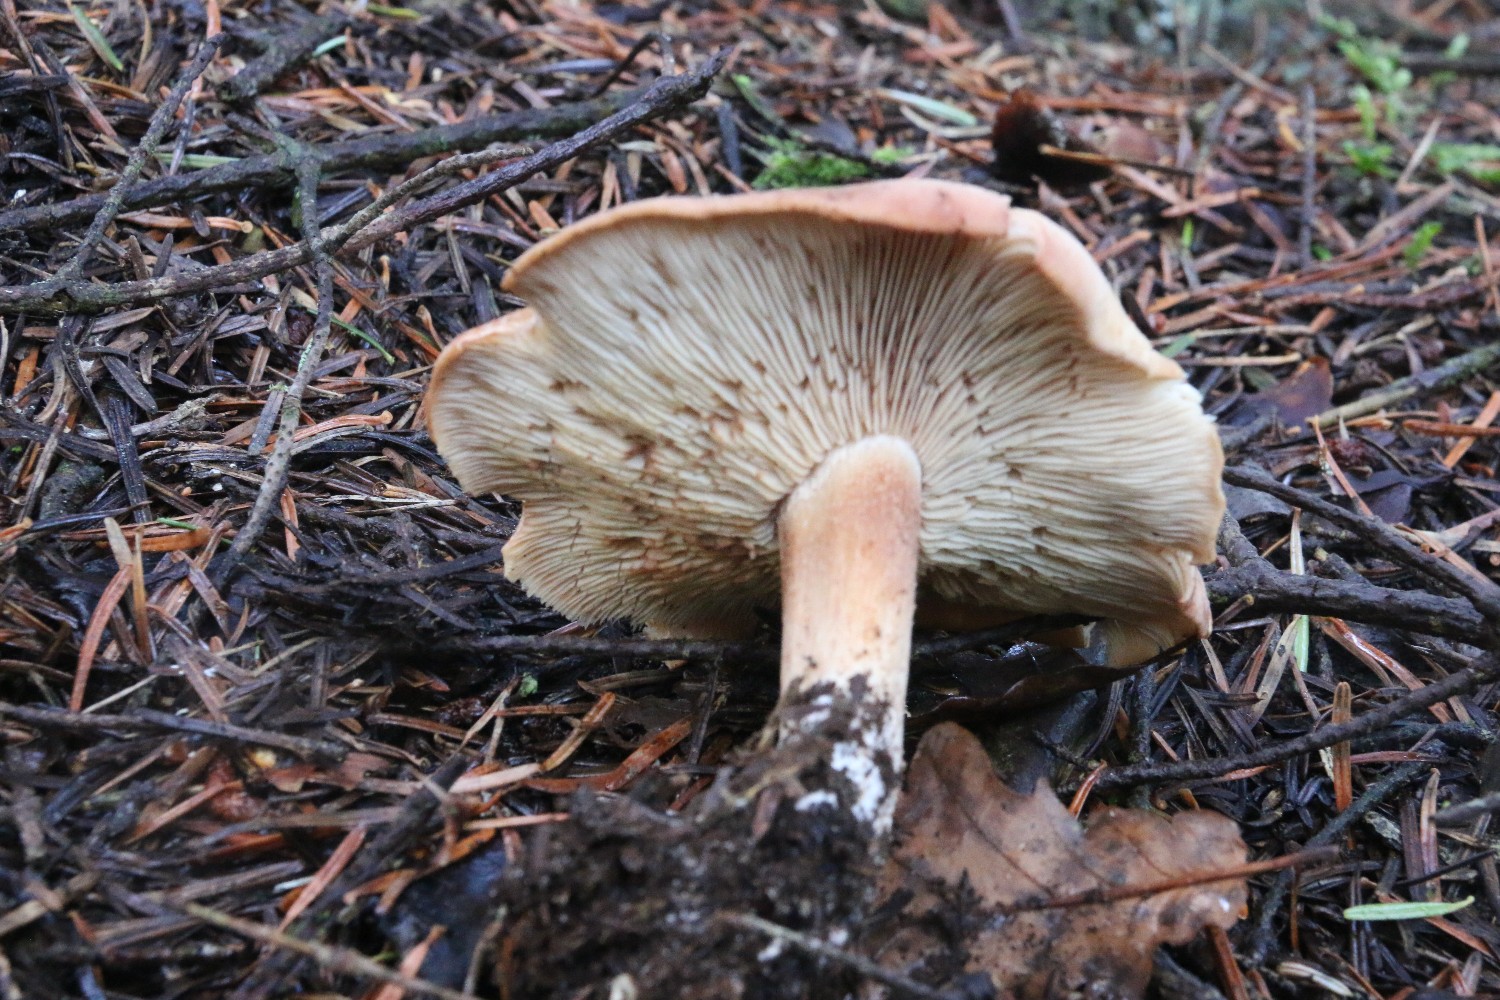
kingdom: Fungi
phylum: Basidiomycota
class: Agaricomycetes
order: Agaricales
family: Entolomataceae
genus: Clitopilus
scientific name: Clitopilus geminus
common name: kødfarvet troldhat
